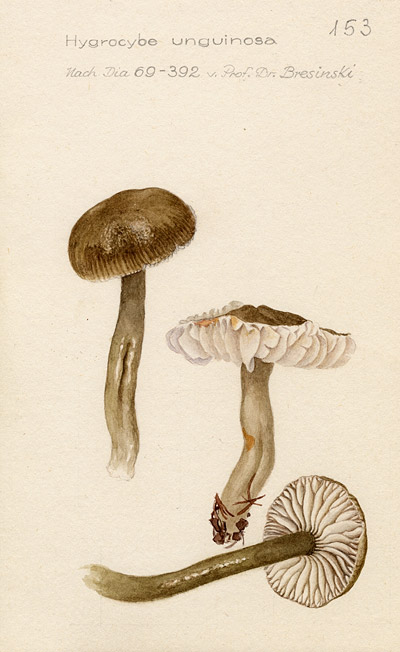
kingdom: Fungi
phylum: Basidiomycota
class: Agaricomycetes
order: Agaricales
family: Hygrophoraceae
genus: Gliophorus
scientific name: Gliophorus irrigatus
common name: Slimy waxcap
